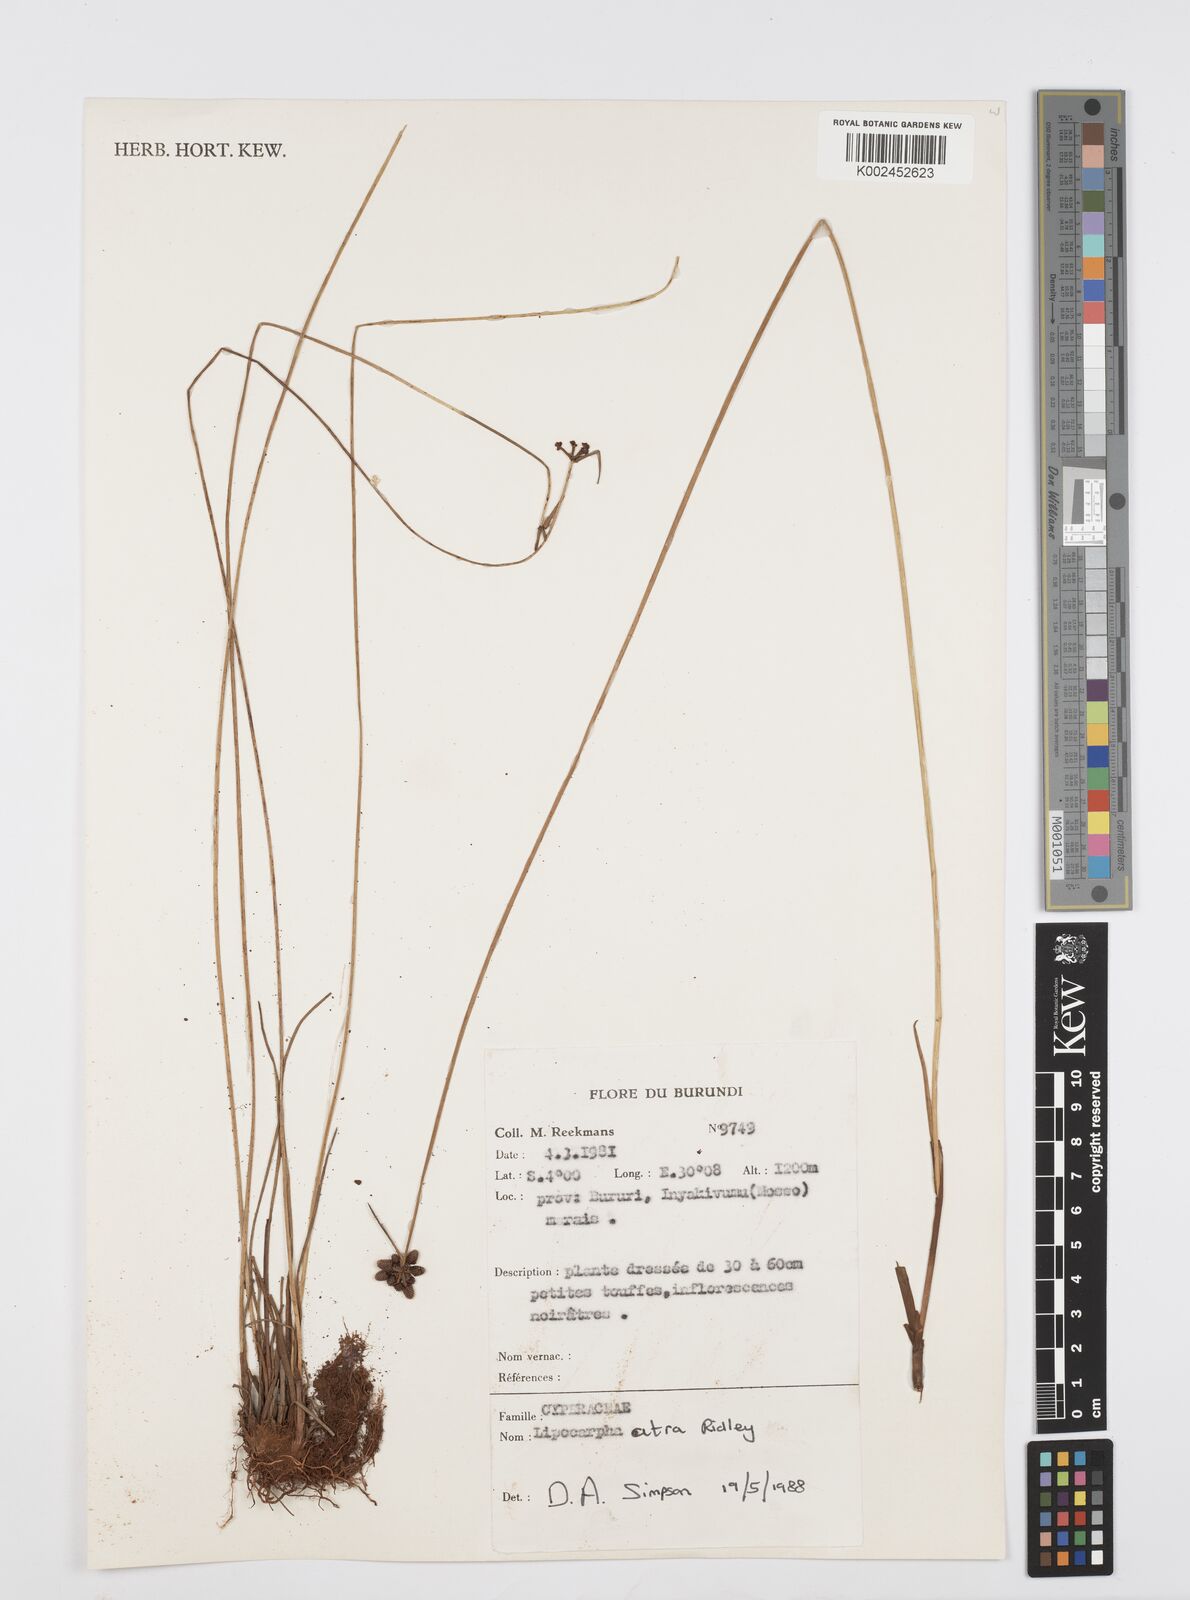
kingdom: Plantae
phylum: Tracheophyta
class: Liliopsida
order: Poales
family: Cyperaceae
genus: Cyperus
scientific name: Cyperus lipoater
